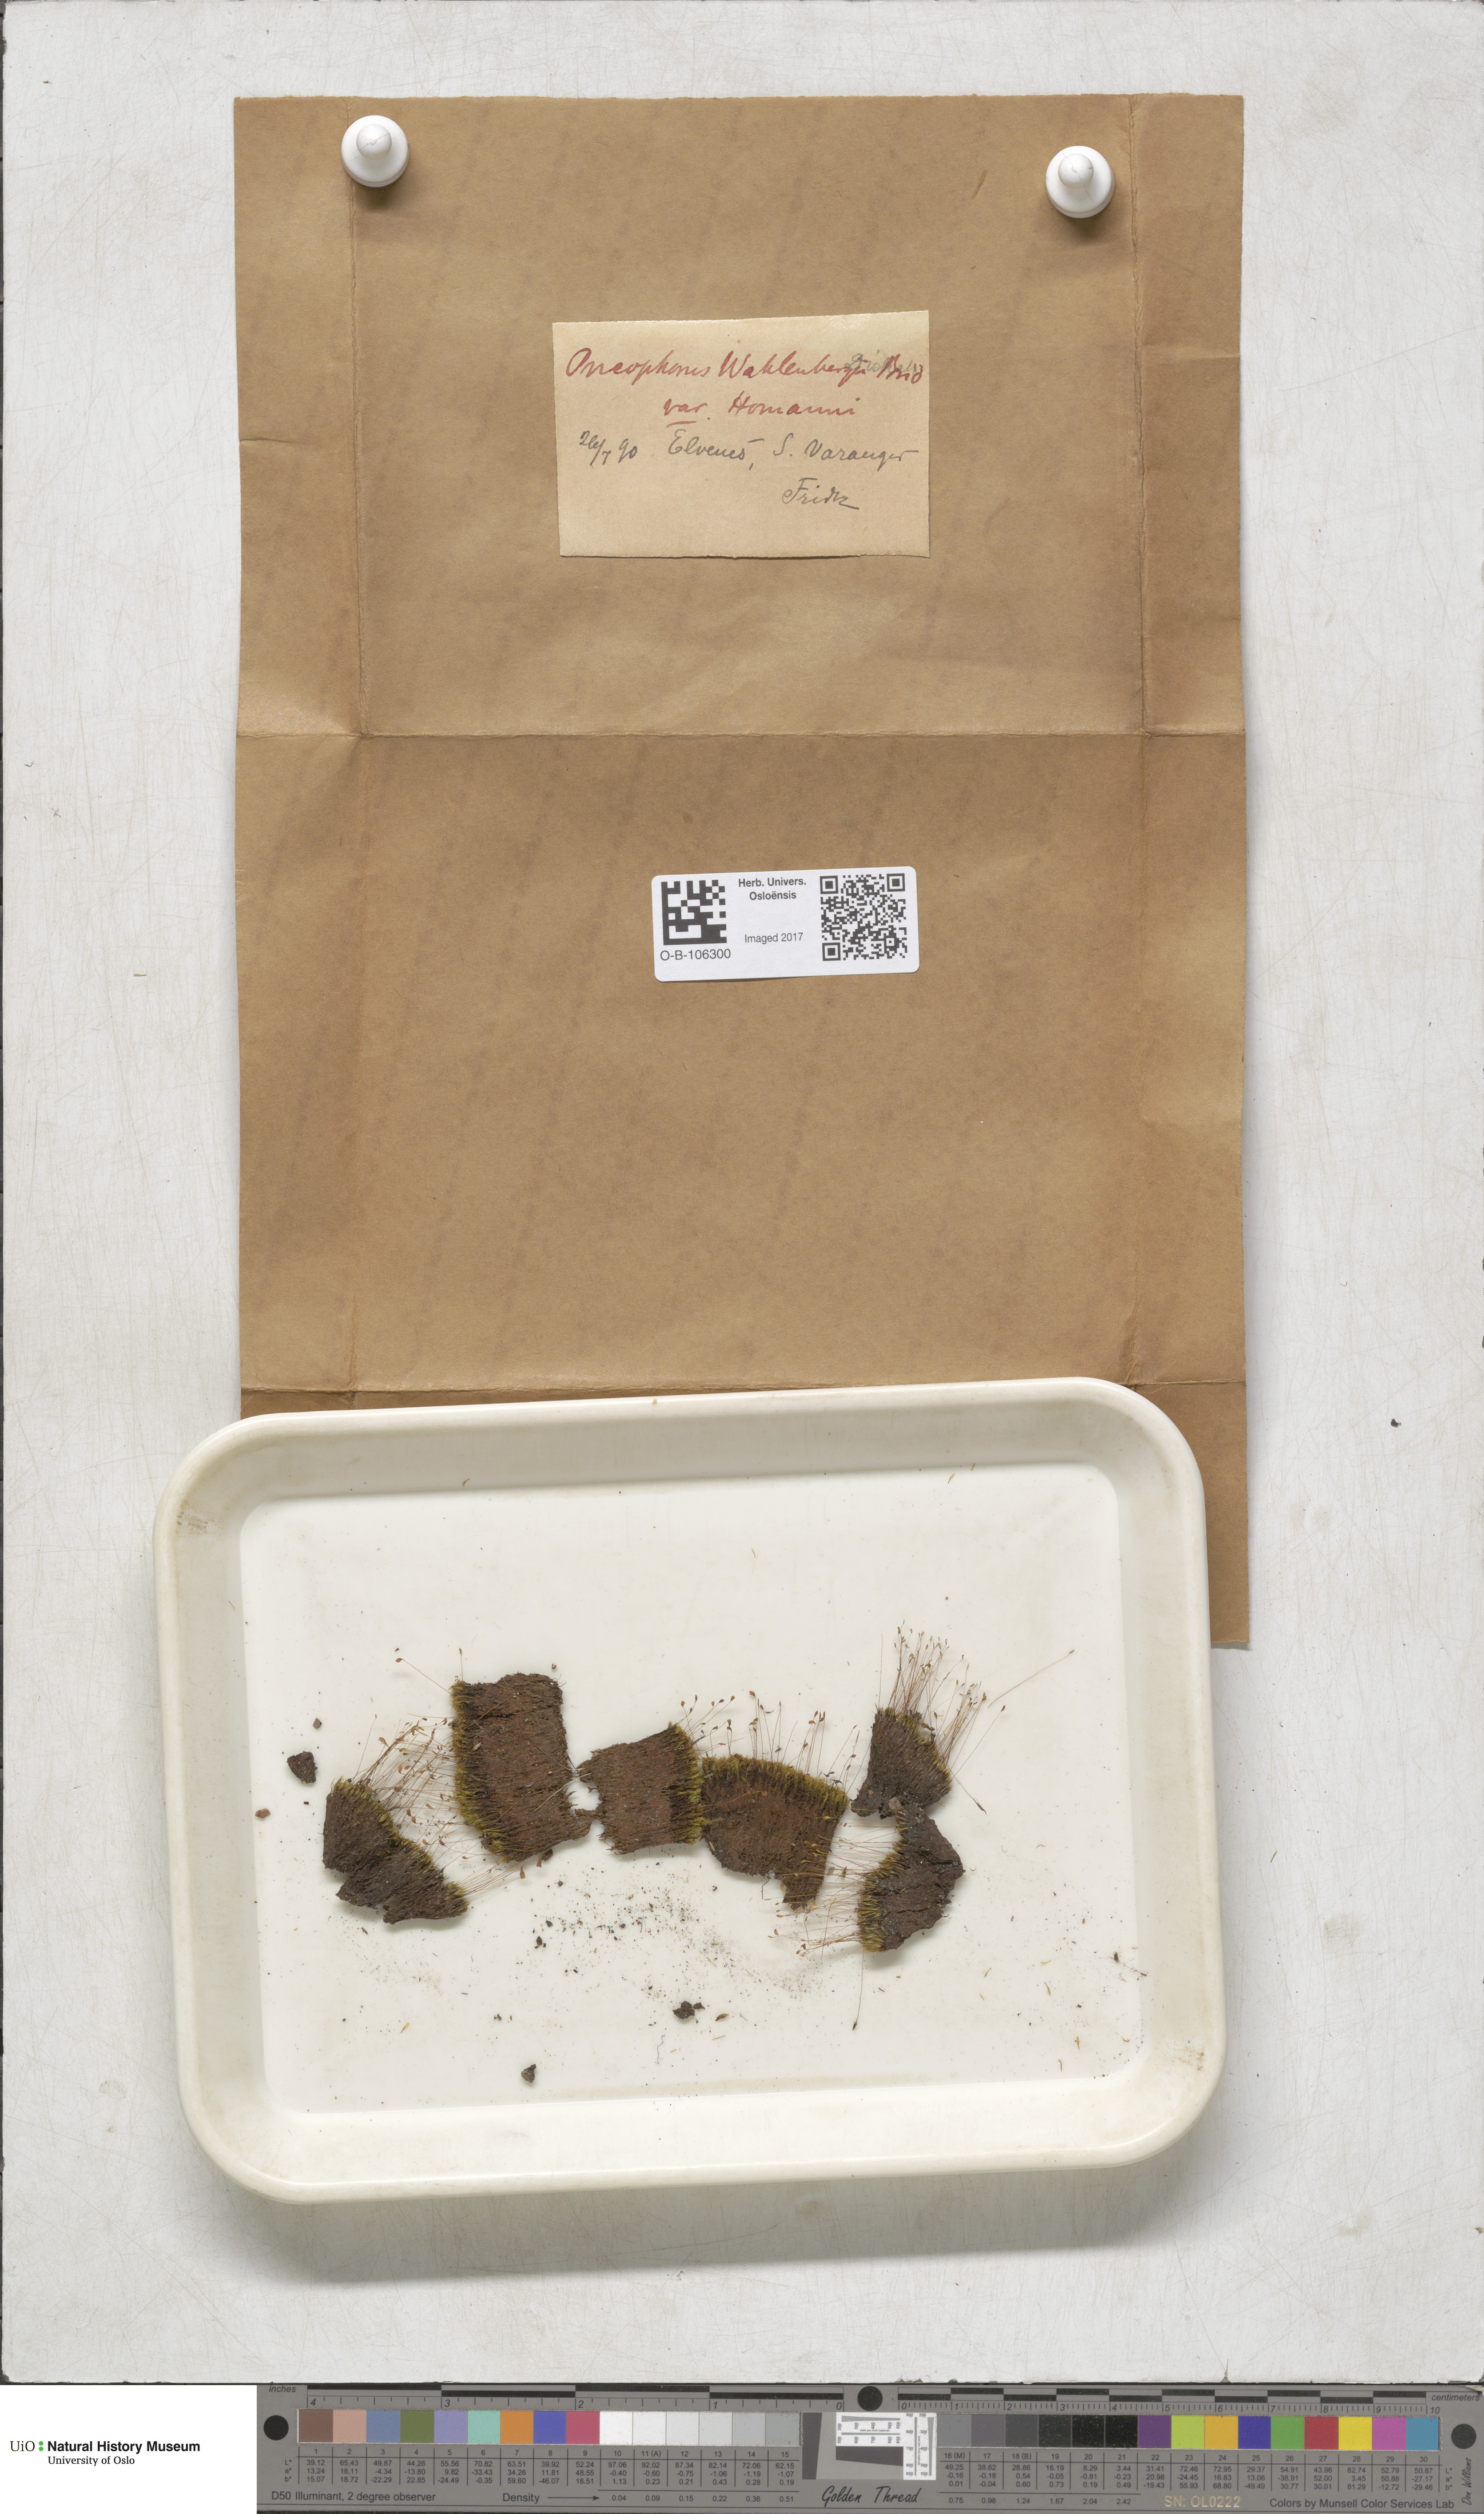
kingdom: Plantae
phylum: Bryophyta
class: Bryopsida
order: Dicranales
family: Rhabdoweisiaceae
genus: Brideliella
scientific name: Brideliella wahlenbergii
